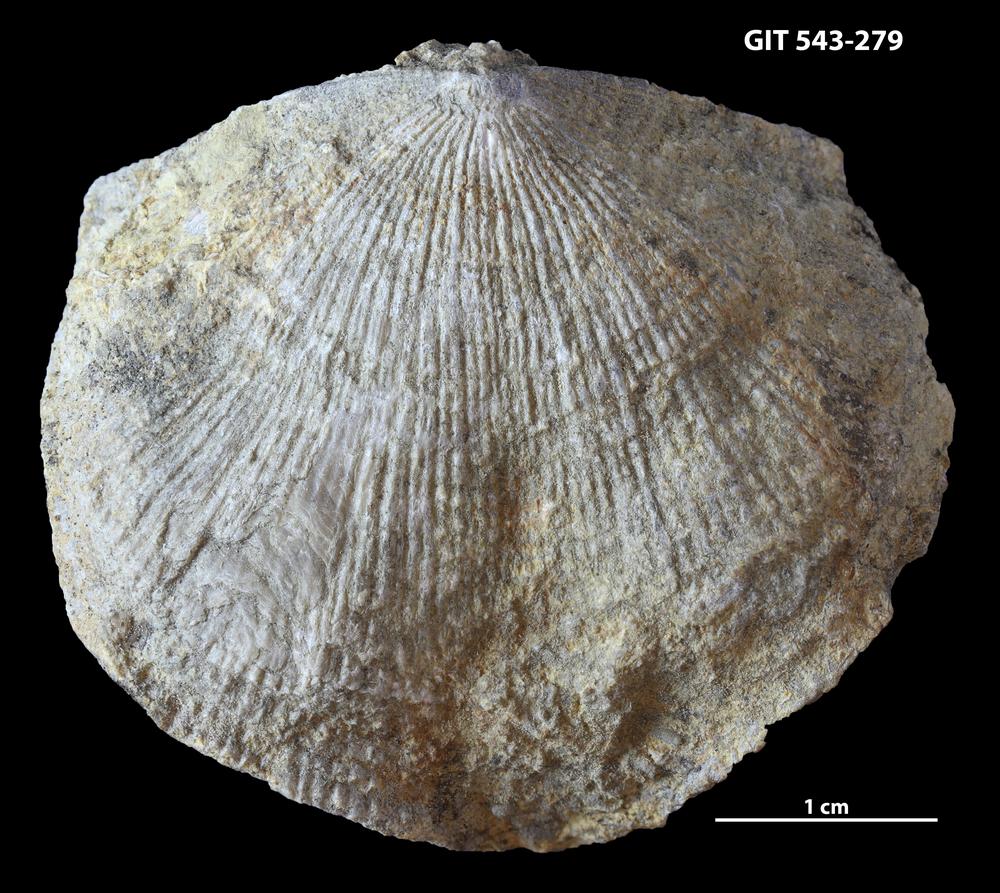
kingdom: Animalia
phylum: Brachiopoda
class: Rhynchonellata
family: Clitambonitidae
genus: Ilmarinia
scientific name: Ilmarinia Orthisina sinuata
